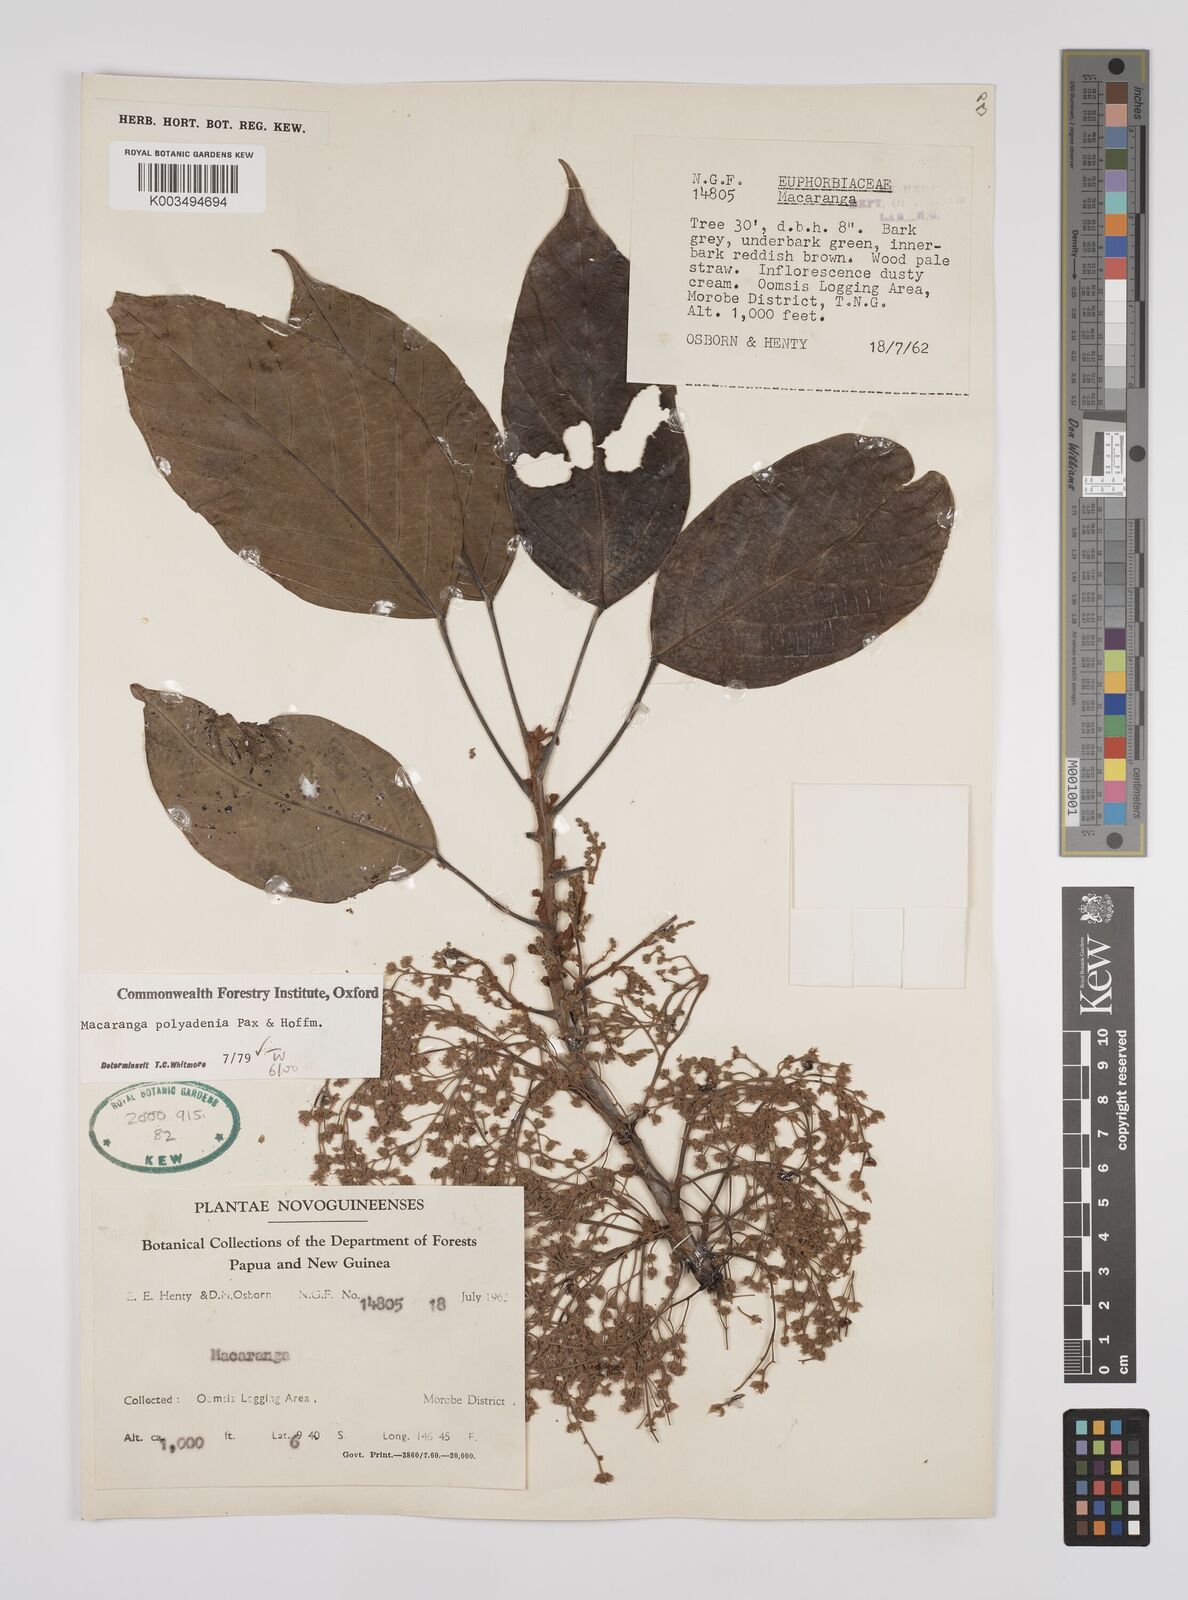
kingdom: Plantae
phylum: Tracheophyta
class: Magnoliopsida
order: Malpighiales
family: Euphorbiaceae
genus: Macaranga
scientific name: Macaranga polyadenia
